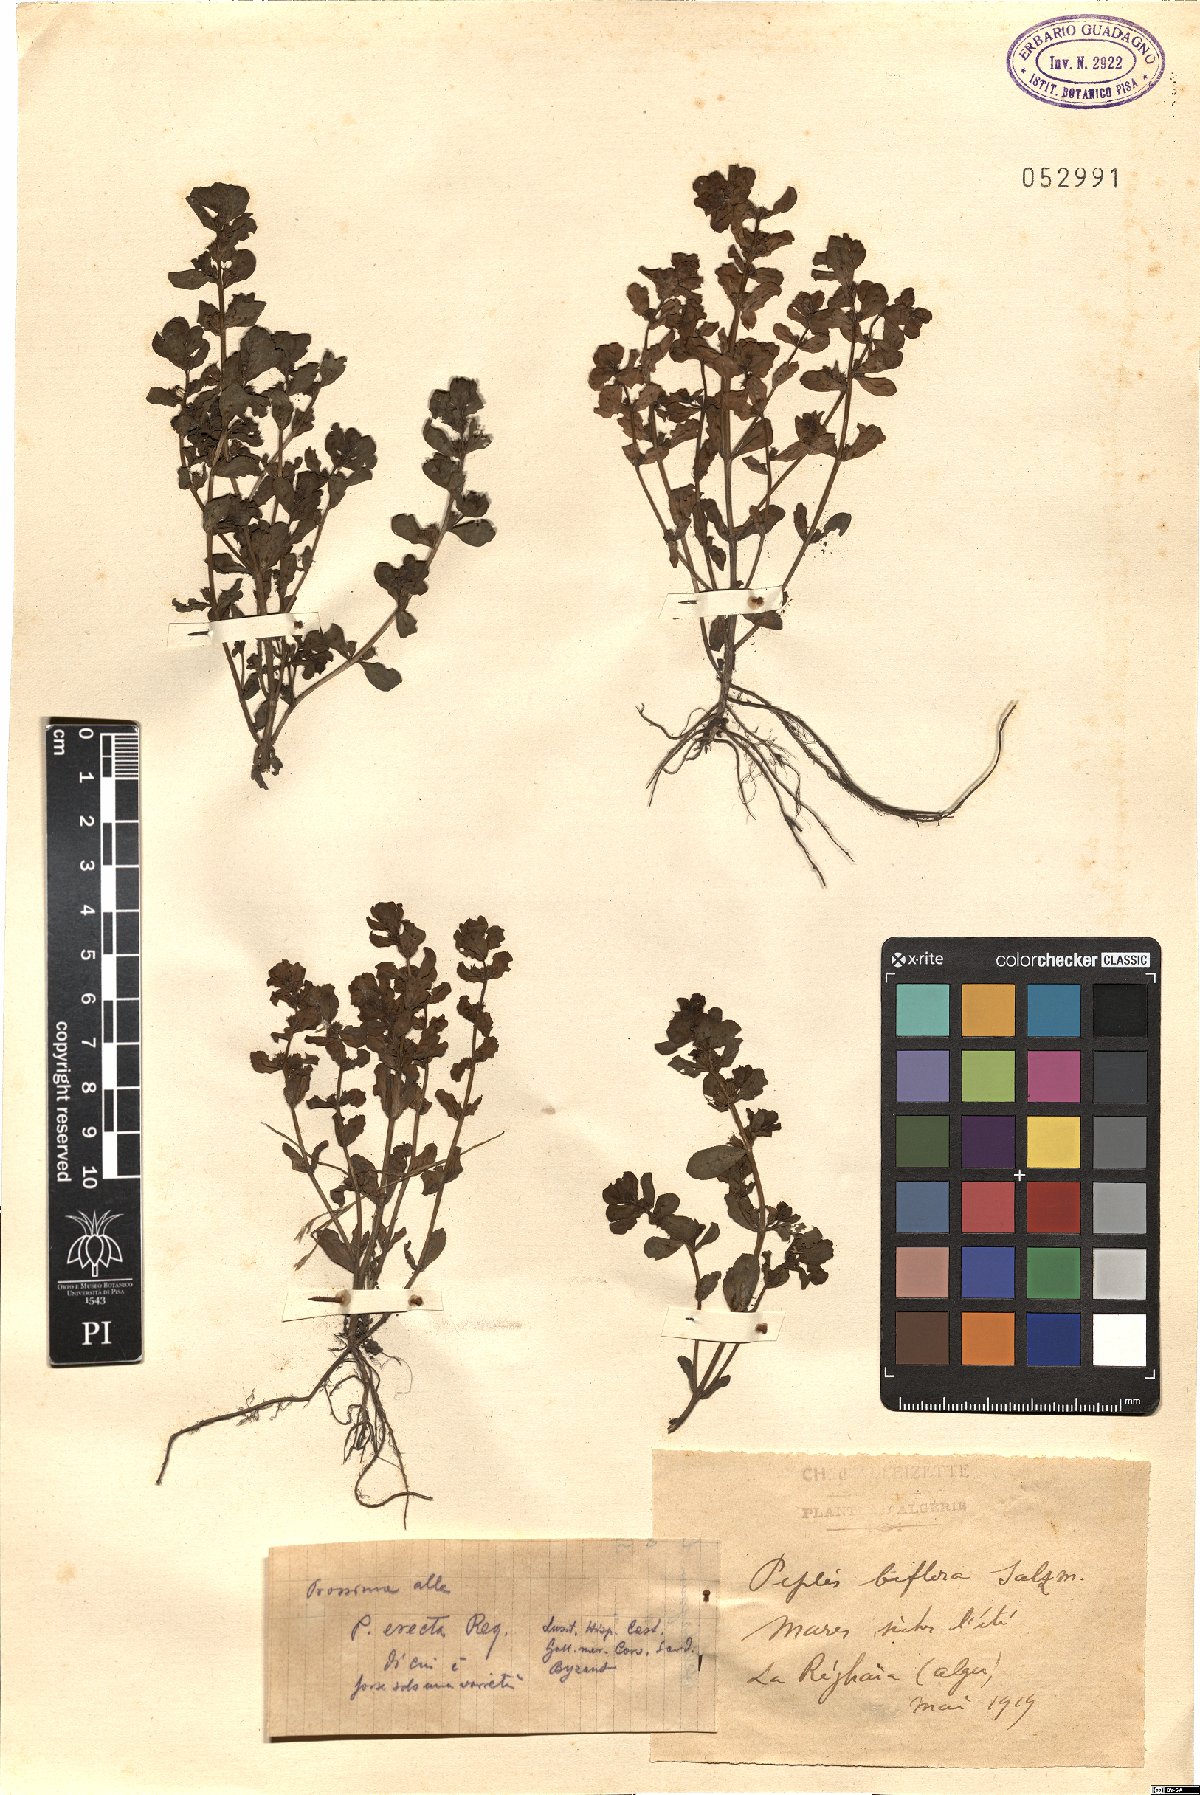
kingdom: Plantae
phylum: Tracheophyta
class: Magnoliopsida
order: Myrtales
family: Lythraceae
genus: Lythrum
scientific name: Lythrum borysthenicum
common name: Loosestrife
